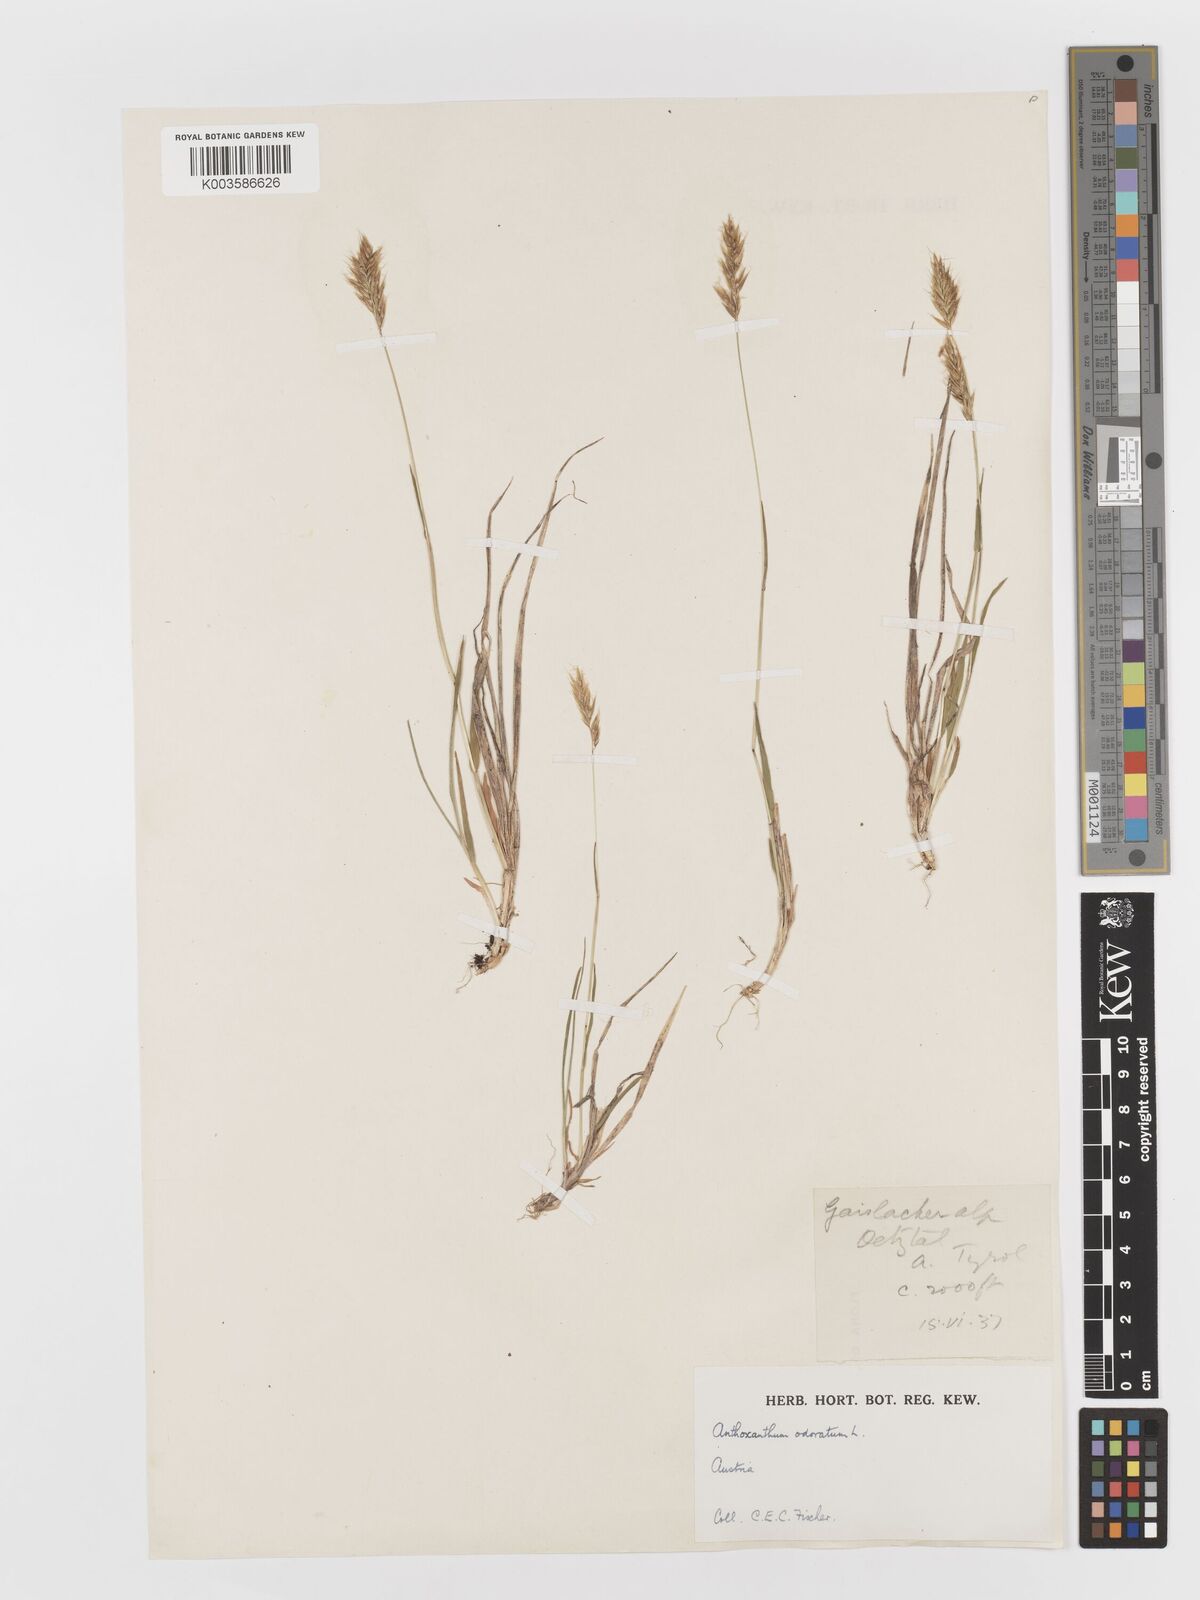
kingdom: Plantae
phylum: Tracheophyta
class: Liliopsida
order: Poales
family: Poaceae
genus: Anthoxanthum
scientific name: Anthoxanthum odoratum
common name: Sweet vernalgrass
